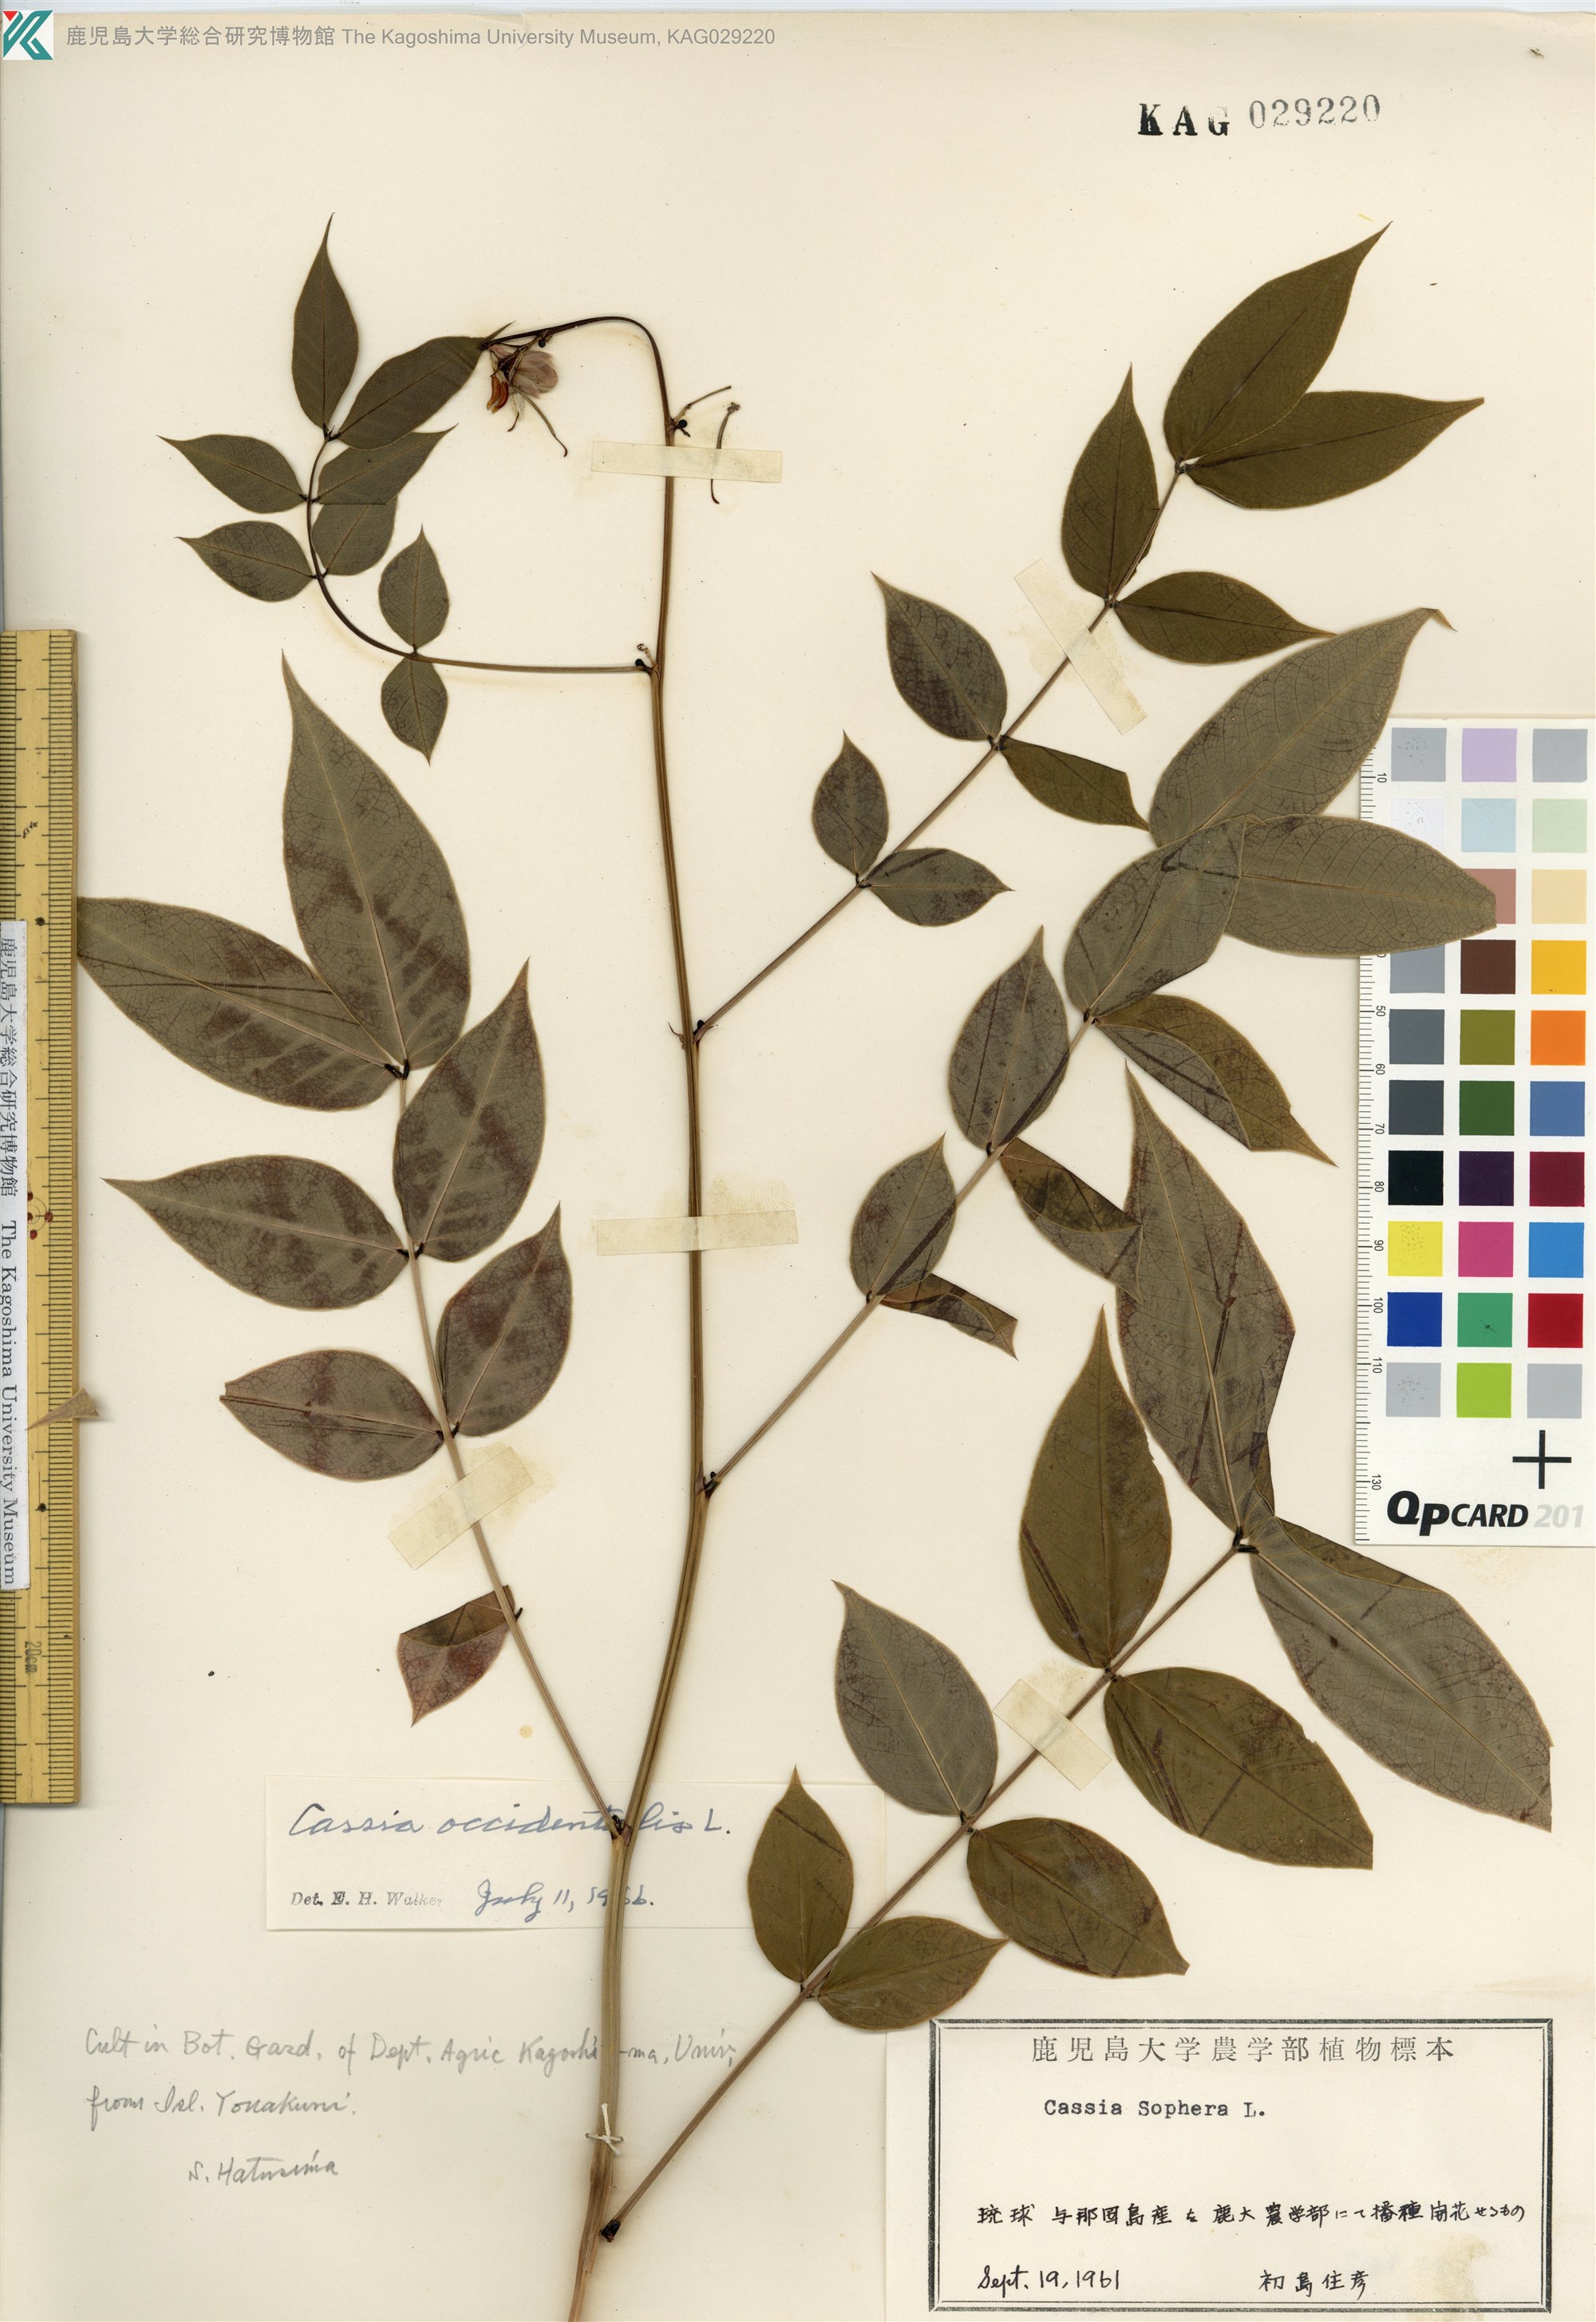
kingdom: Plantae
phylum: Tracheophyta
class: Magnoliopsida
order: Fabales
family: Fabaceae
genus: Senna
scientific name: Senna occidentalis
